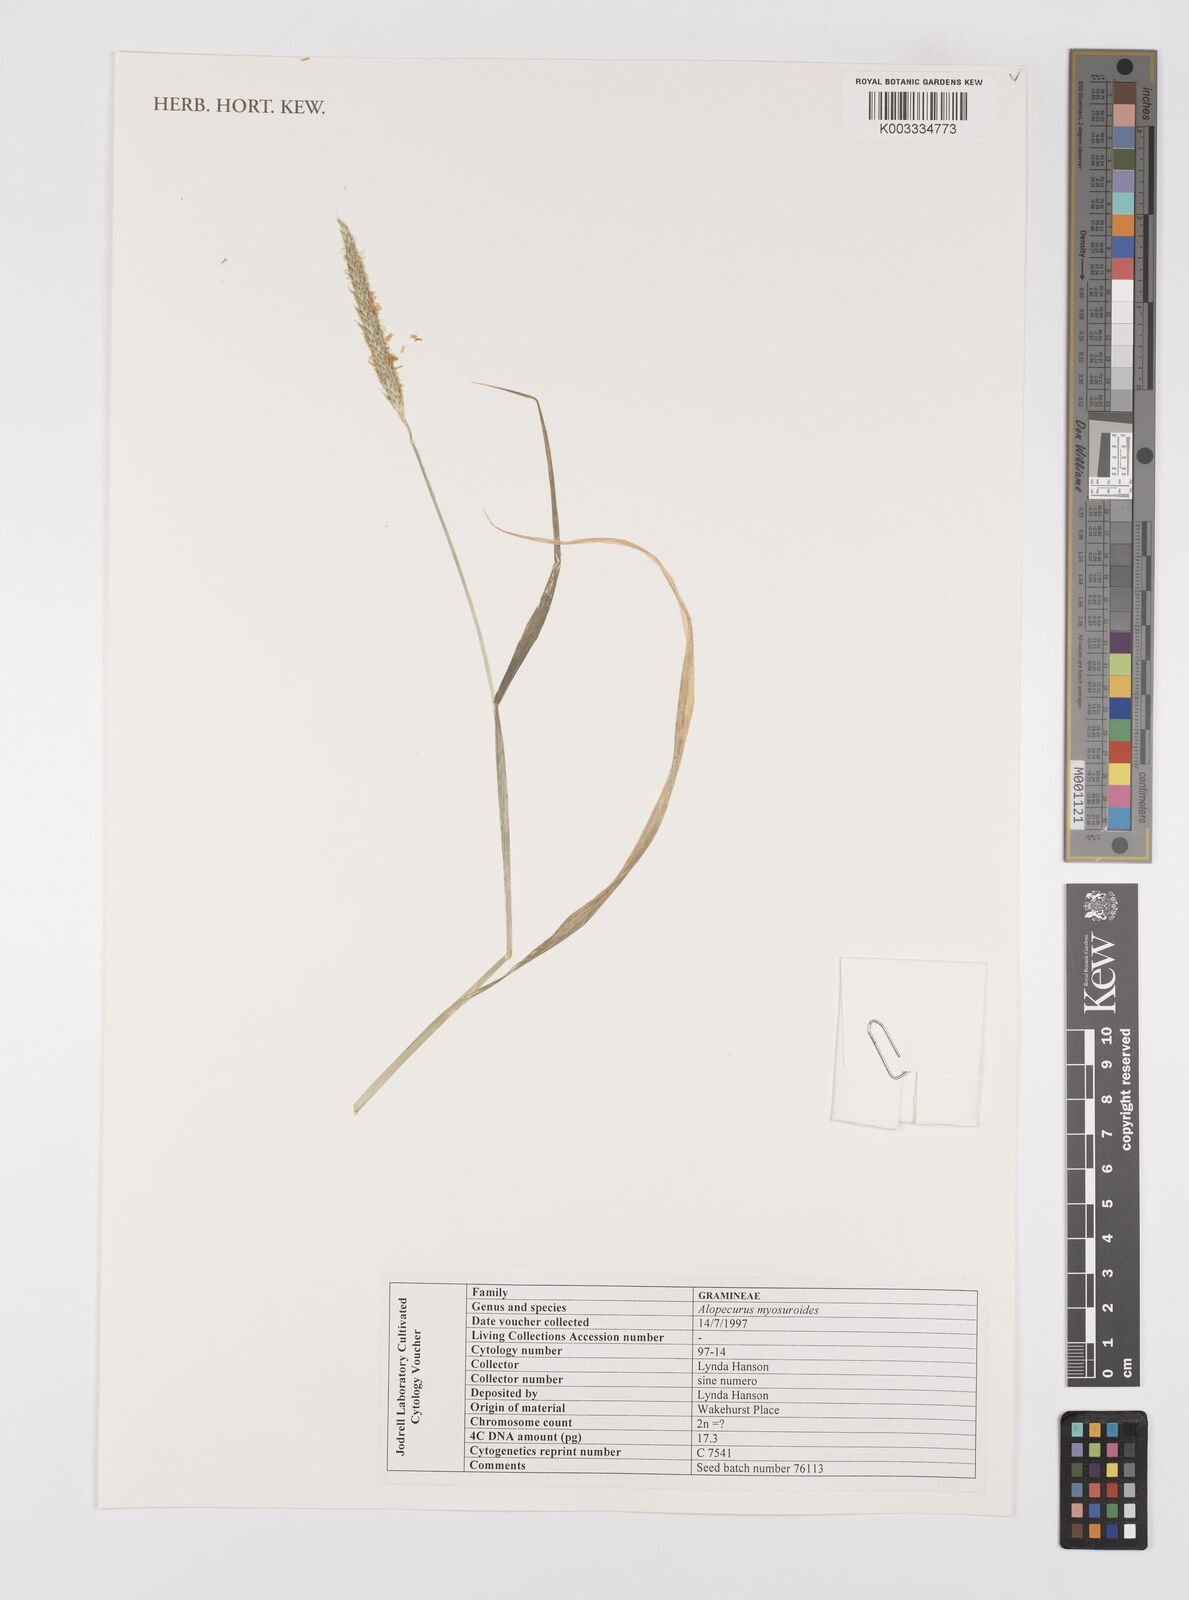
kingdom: Plantae
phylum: Tracheophyta
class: Liliopsida
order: Poales
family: Poaceae
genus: Alopecurus
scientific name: Alopecurus myosuroides
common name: Black-grass
